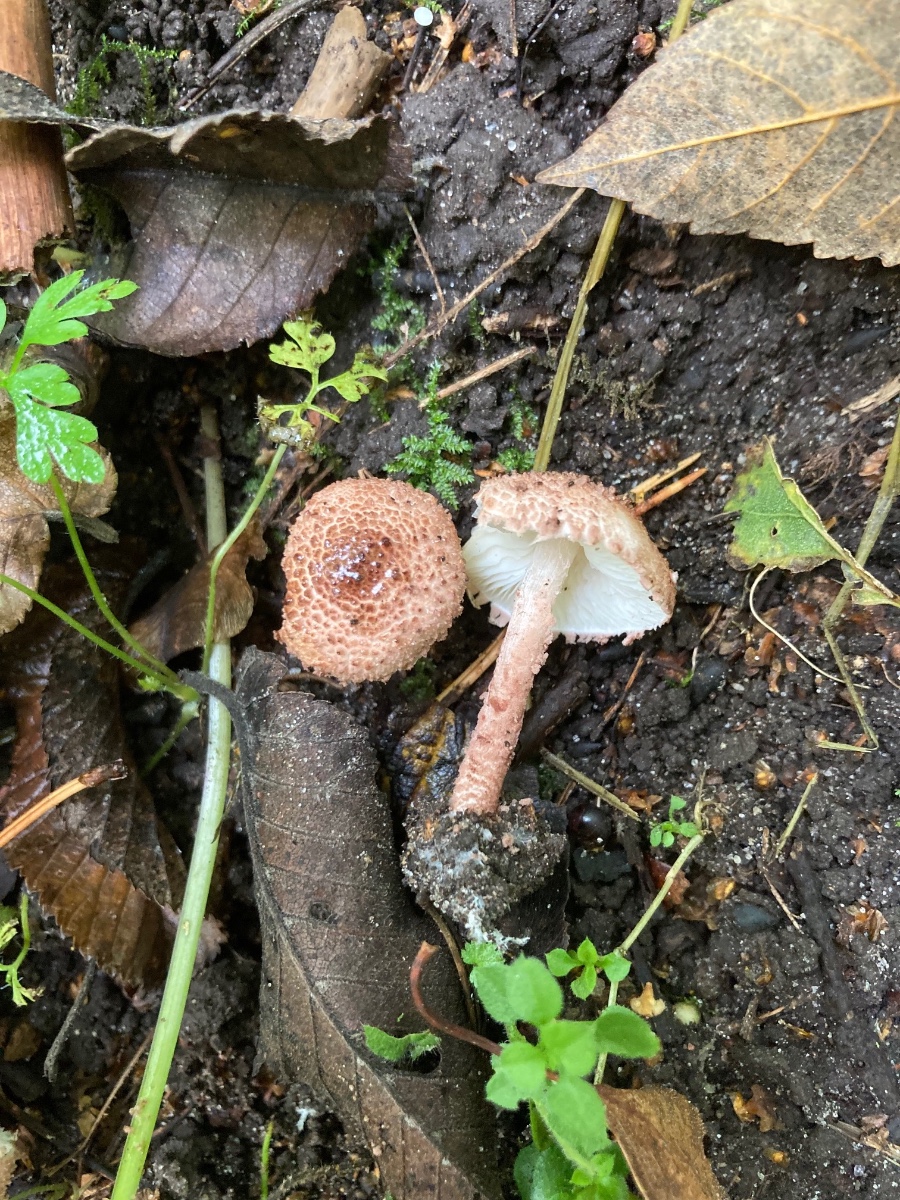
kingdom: Fungi
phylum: Basidiomycota
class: Agaricomycetes
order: Agaricales
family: Agaricaceae
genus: Cystolepiota
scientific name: Cystolepiota moelleri
